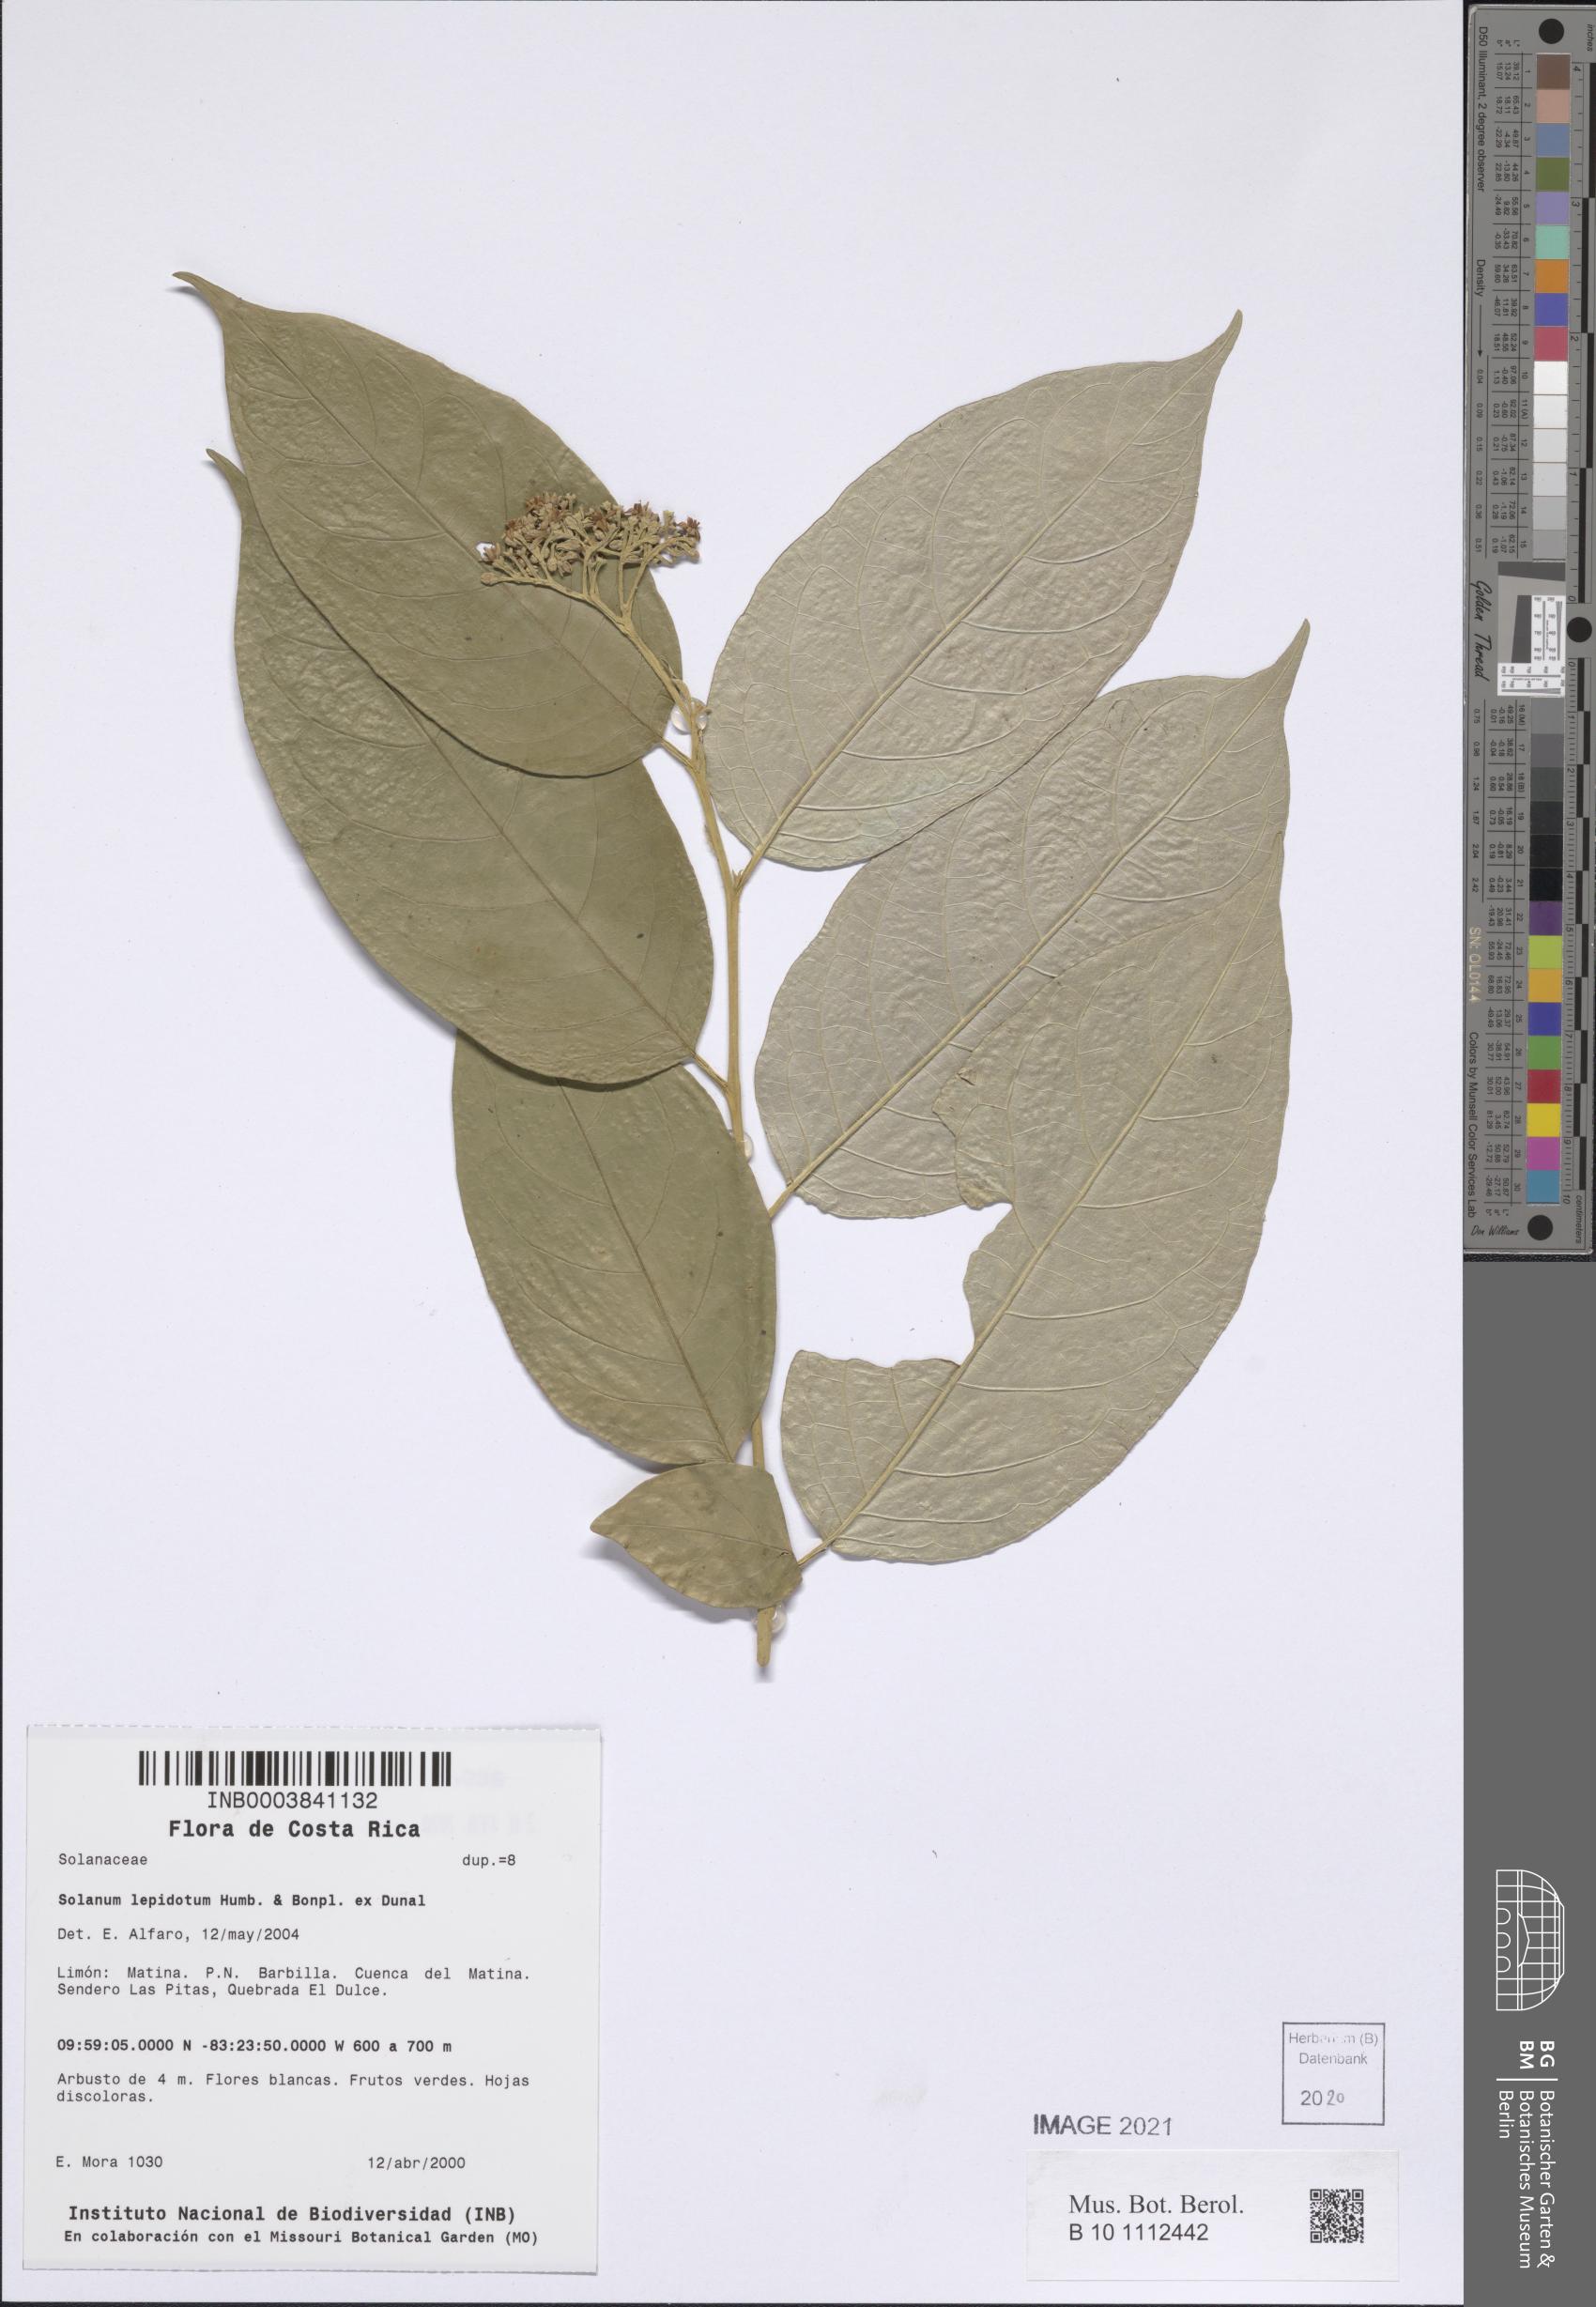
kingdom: Plantae
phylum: Tracheophyta
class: Magnoliopsida
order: Solanales
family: Solanaceae
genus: Solanum
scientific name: Solanum lepidotum
